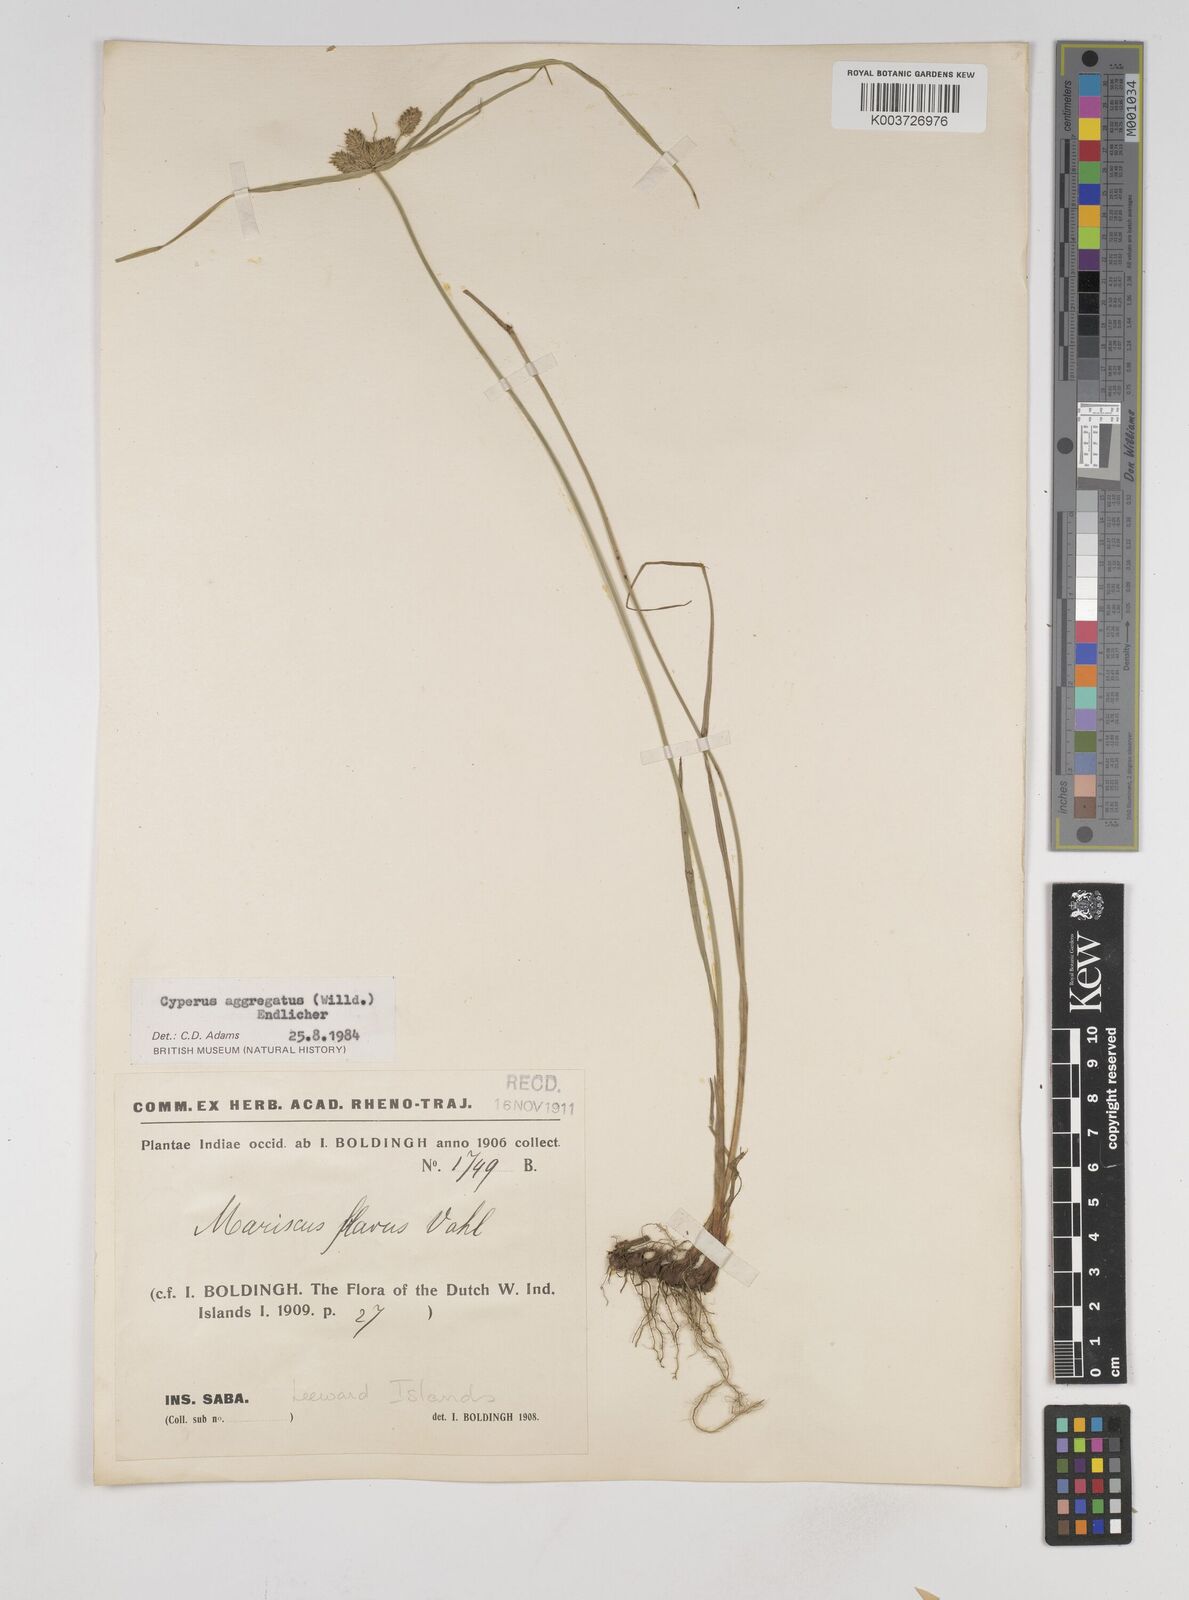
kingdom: Plantae
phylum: Tracheophyta
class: Liliopsida
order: Poales
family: Cyperaceae
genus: Cyperus
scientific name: Cyperus aggregatus
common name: Inflatedscale flatsedge
